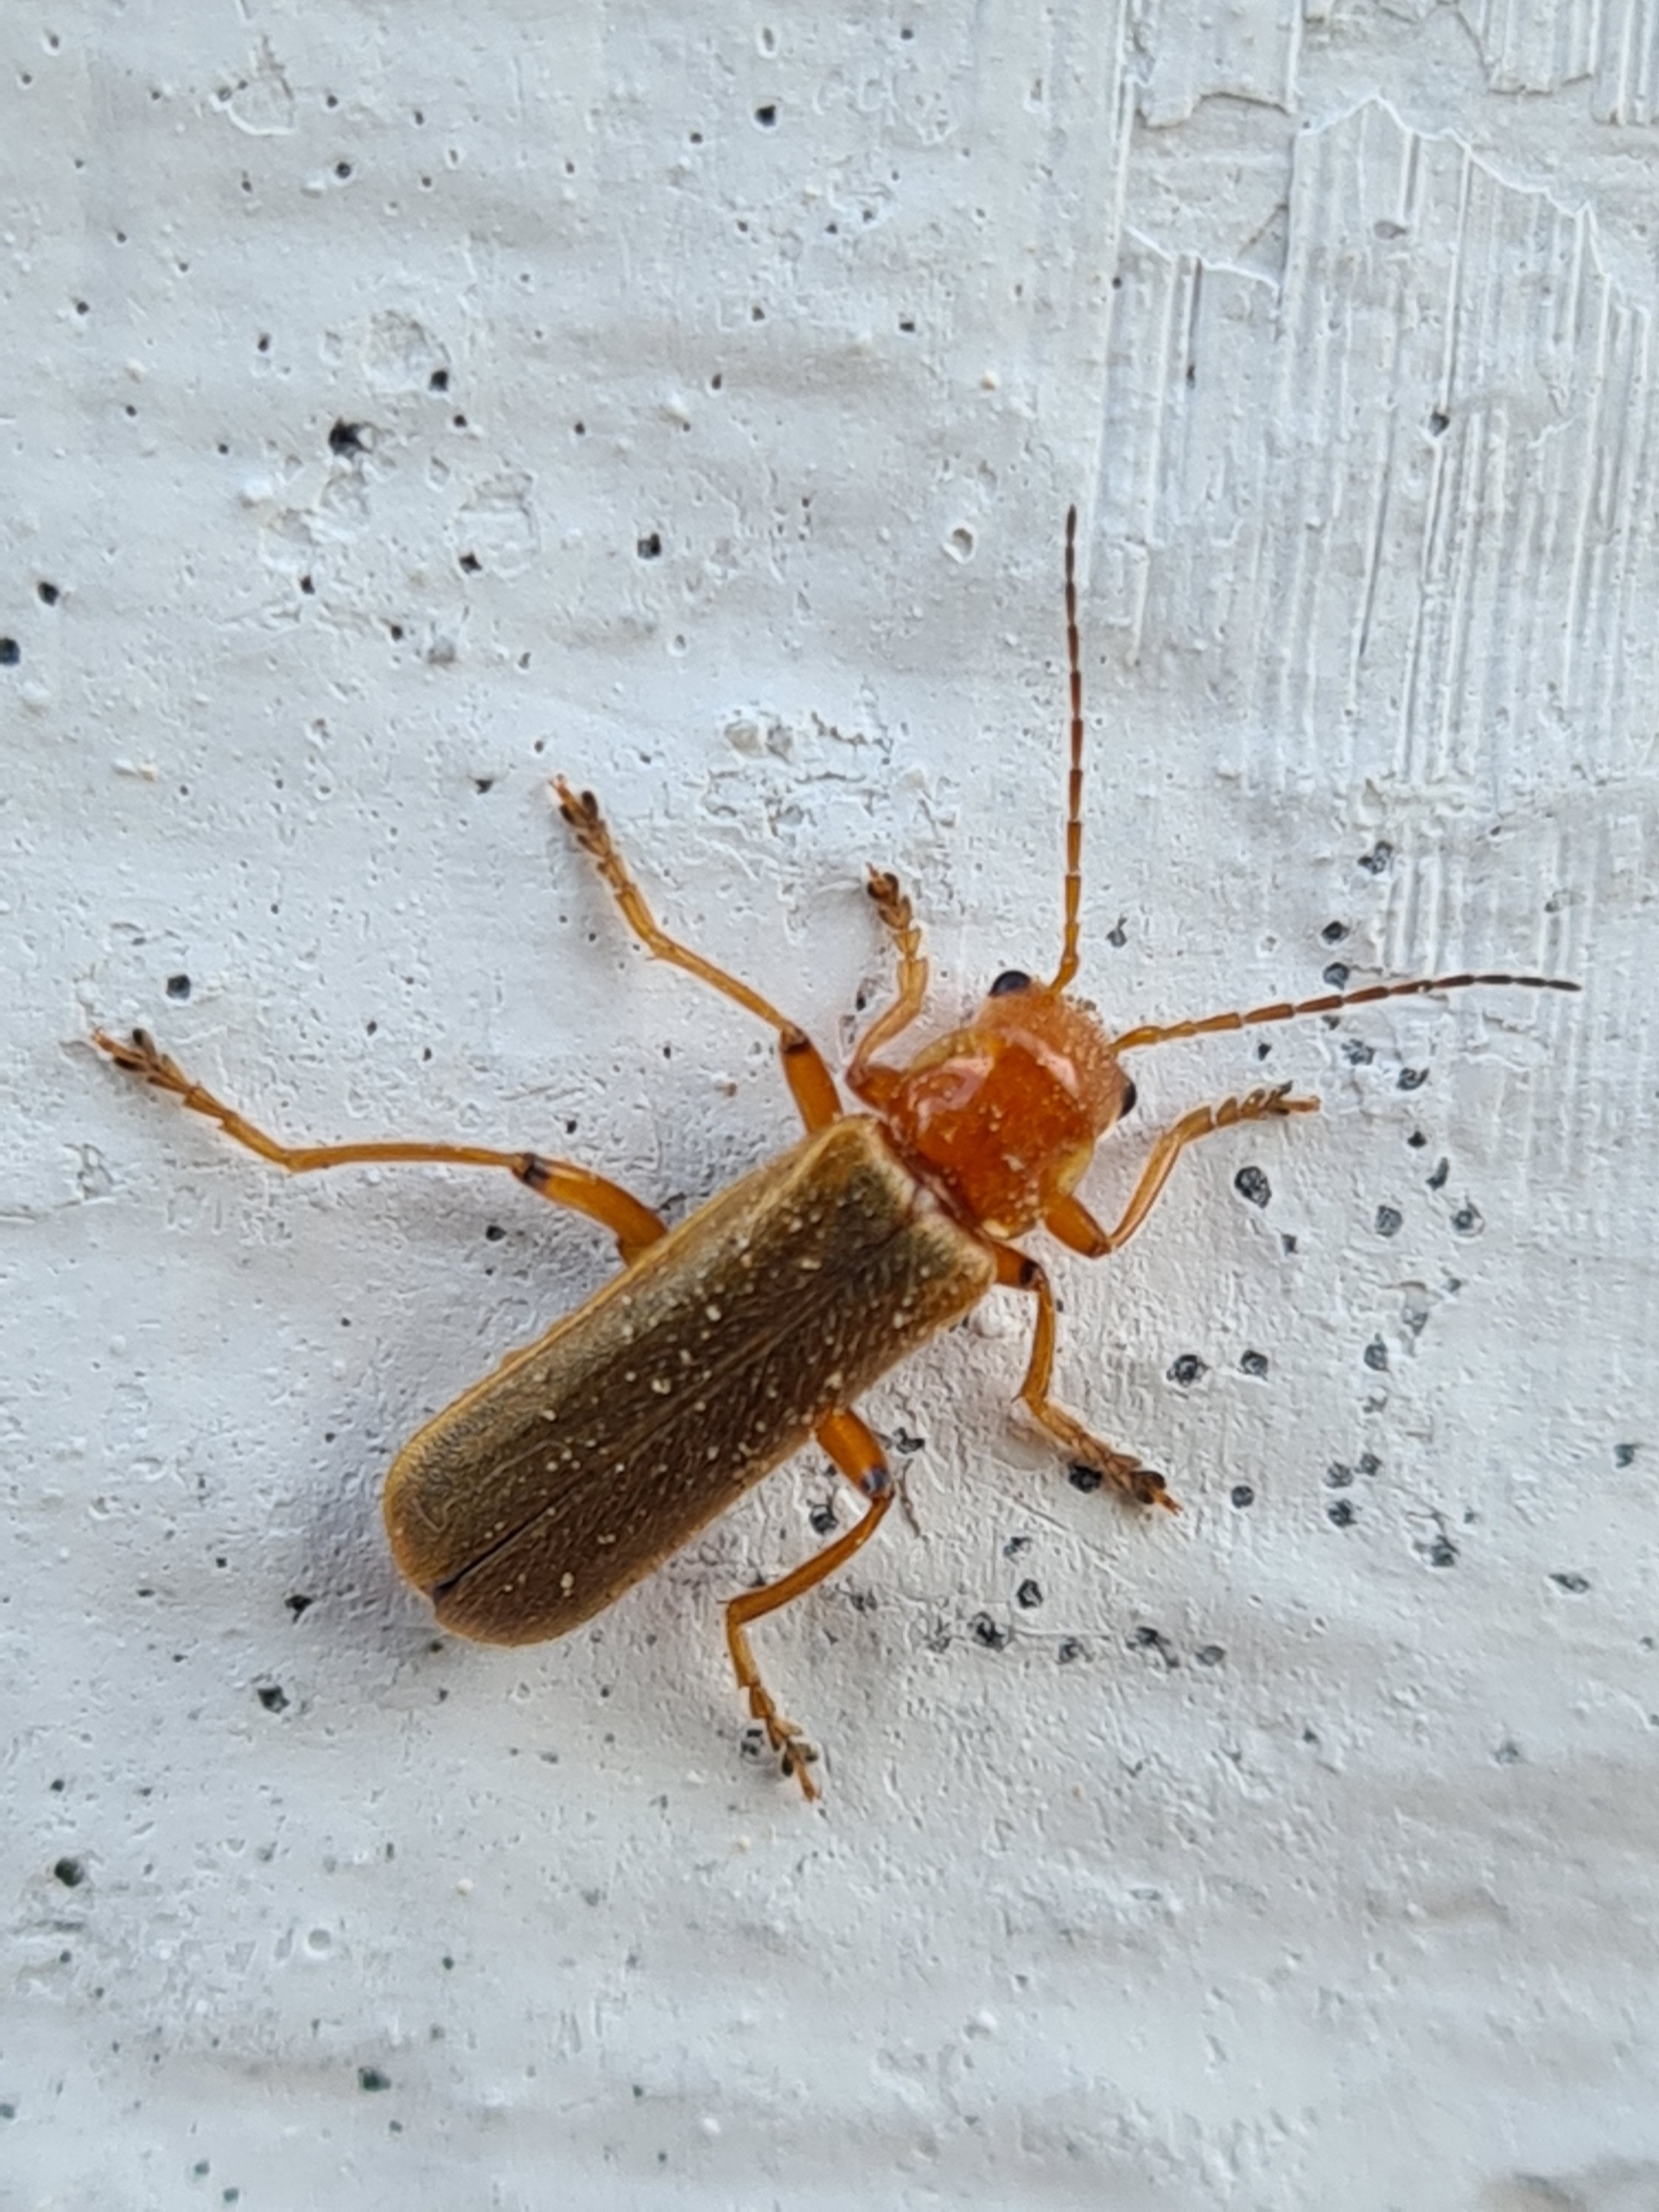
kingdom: Animalia
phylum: Arthropoda
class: Insecta
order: Coleoptera
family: Cantharidae
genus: Cantharis
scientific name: Cantharis
